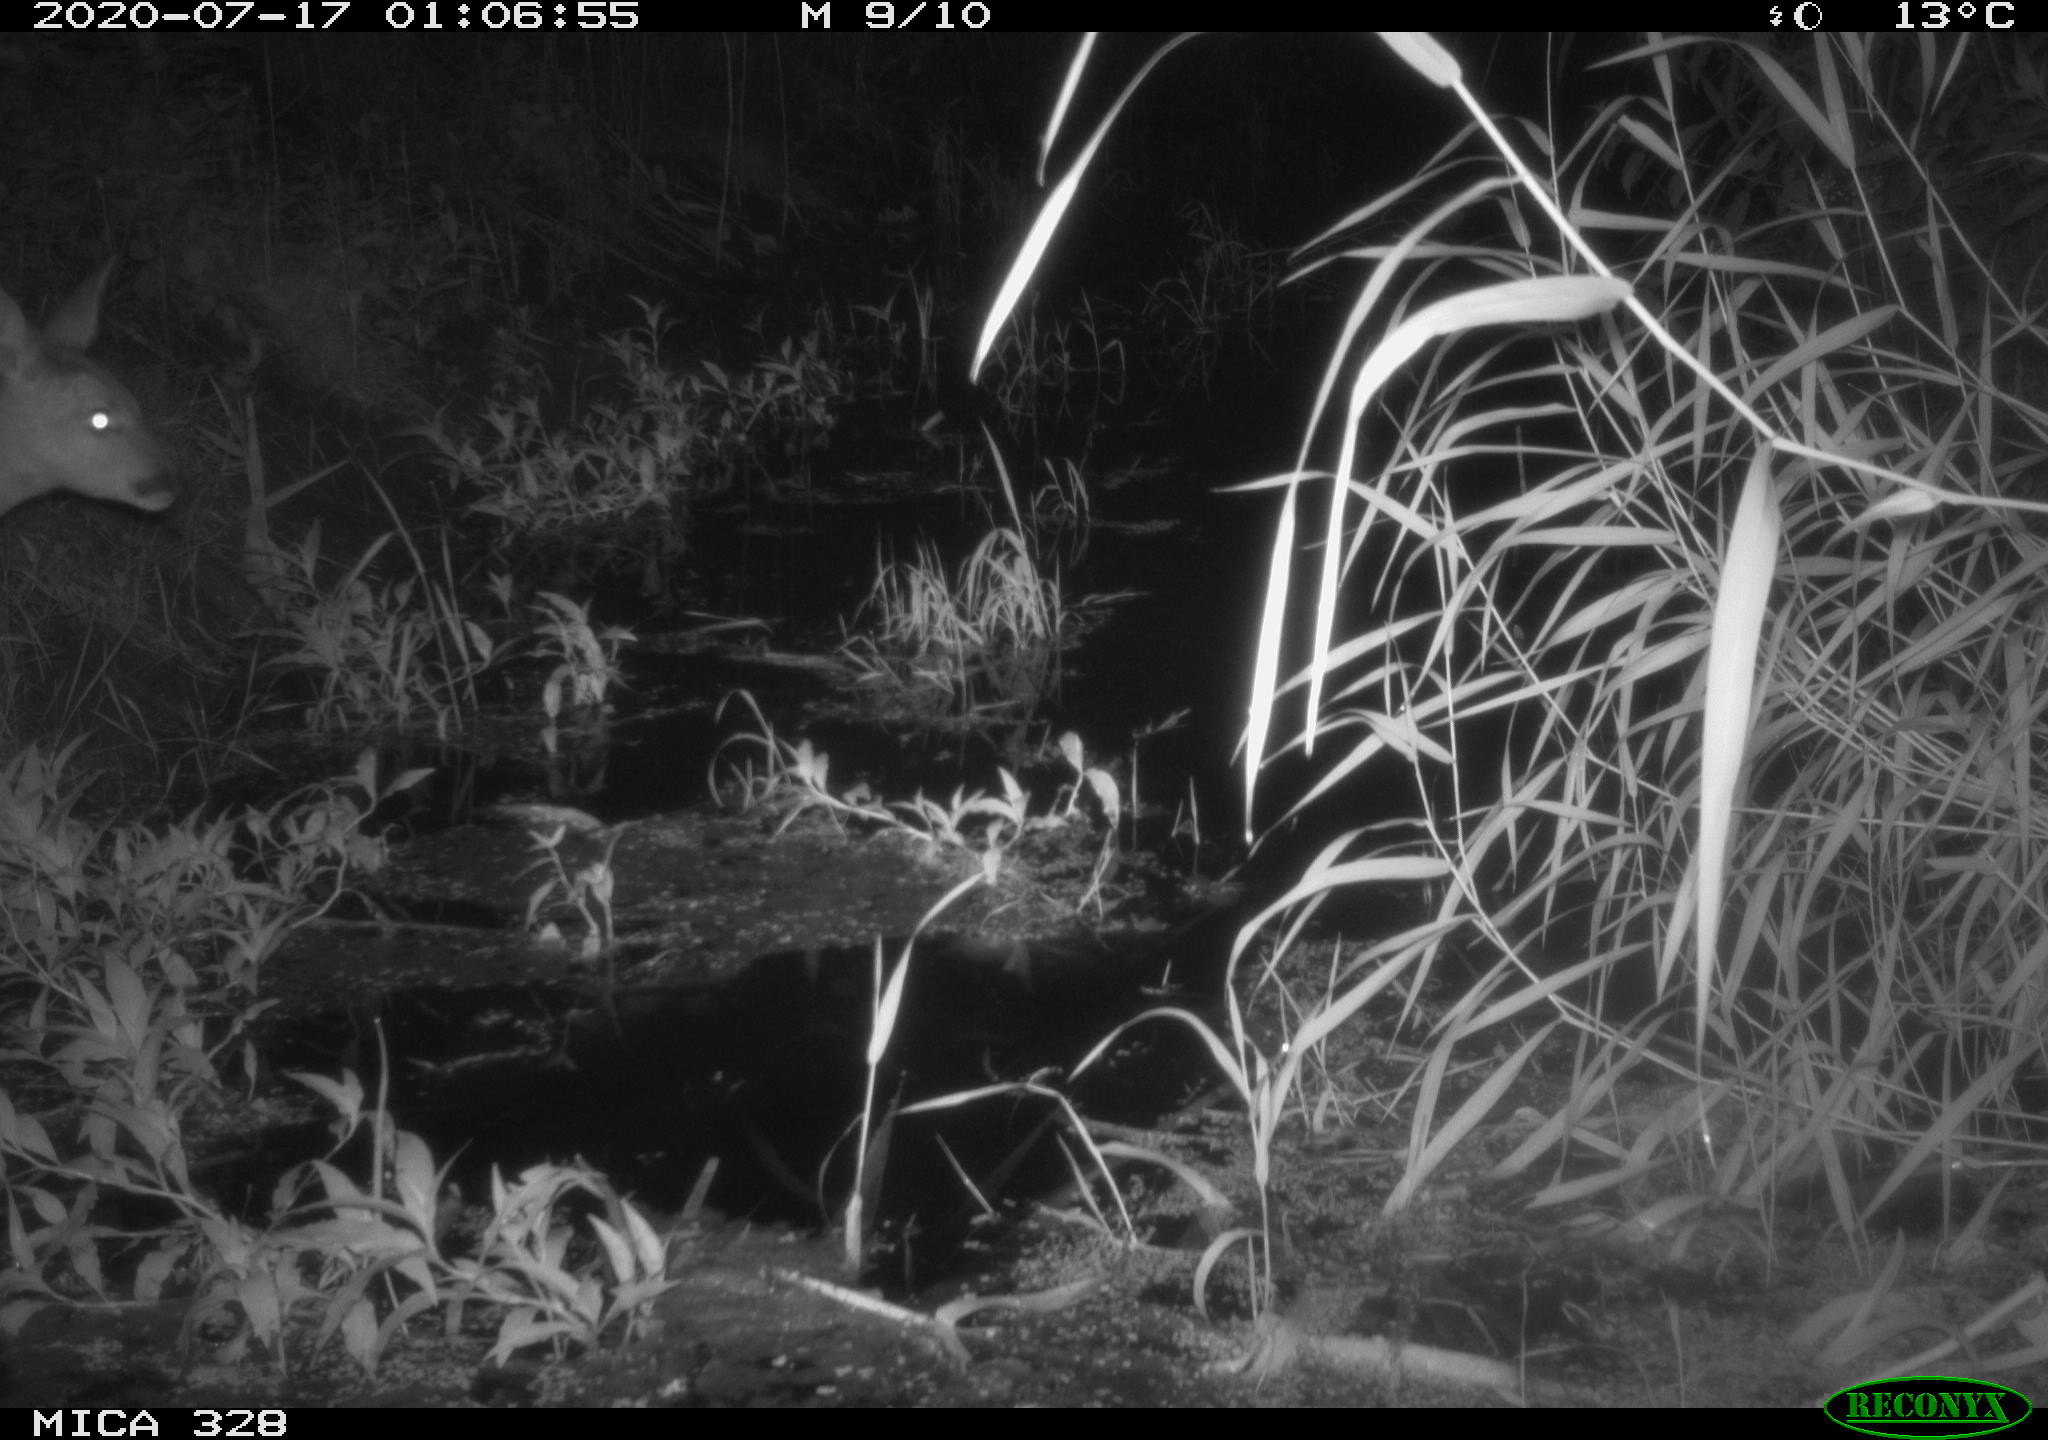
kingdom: Animalia
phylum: Chordata
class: Mammalia
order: Artiodactyla
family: Cervidae
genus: Capreolus
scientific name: Capreolus capreolus
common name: Western roe deer
